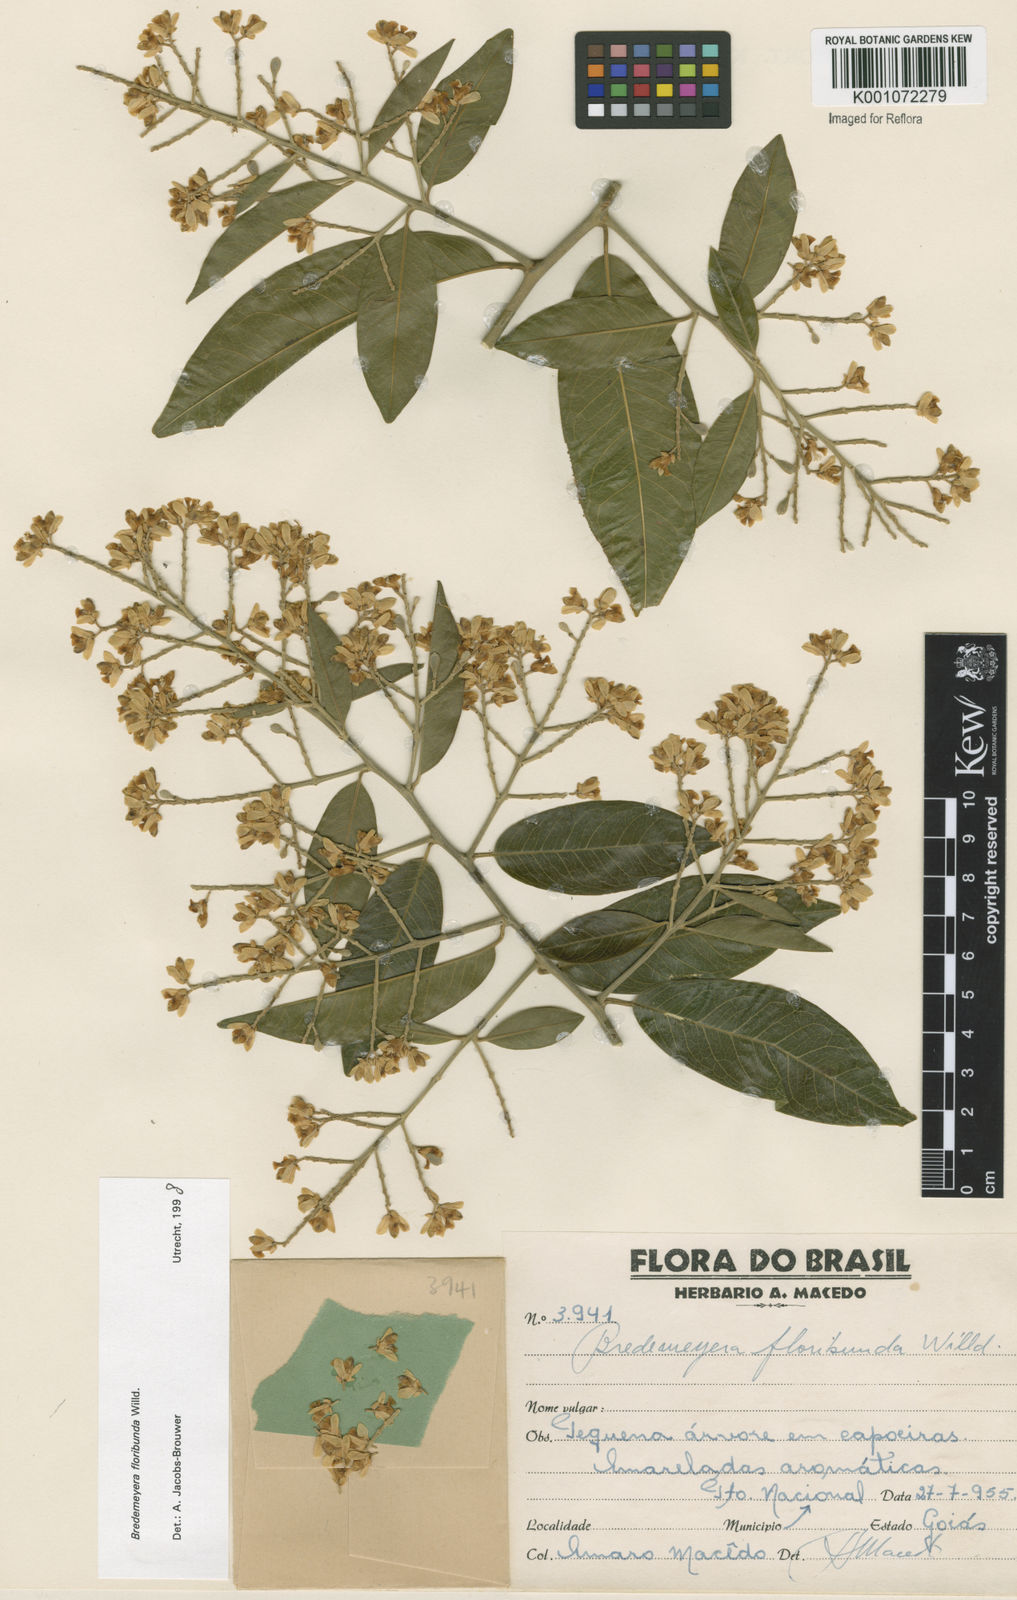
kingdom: Plantae
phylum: Tracheophyta
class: Magnoliopsida
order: Fabales
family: Polygalaceae
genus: Bredemeyera
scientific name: Bredemeyera floribunda
